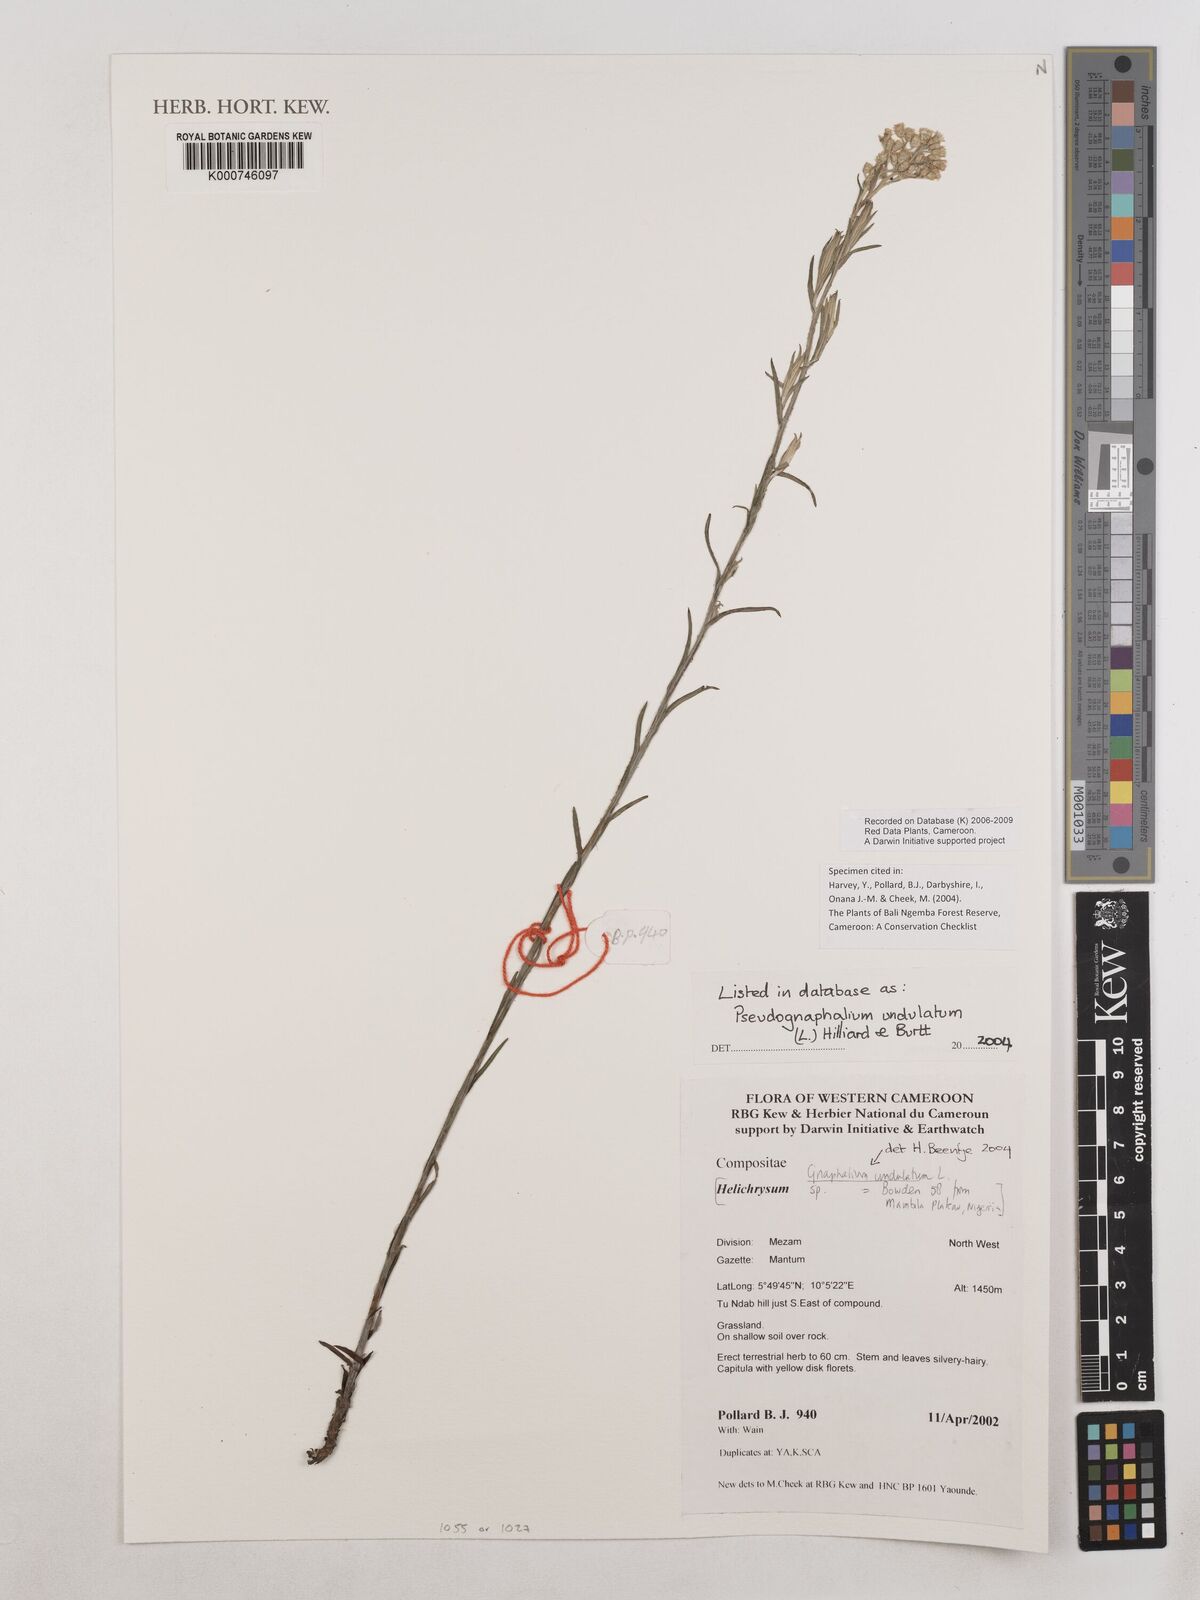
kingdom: Plantae
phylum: Tracheophyta
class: Magnoliopsida
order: Asterales
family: Asteraceae
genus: Pseudognaphalium
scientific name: Pseudognaphalium undulatum
